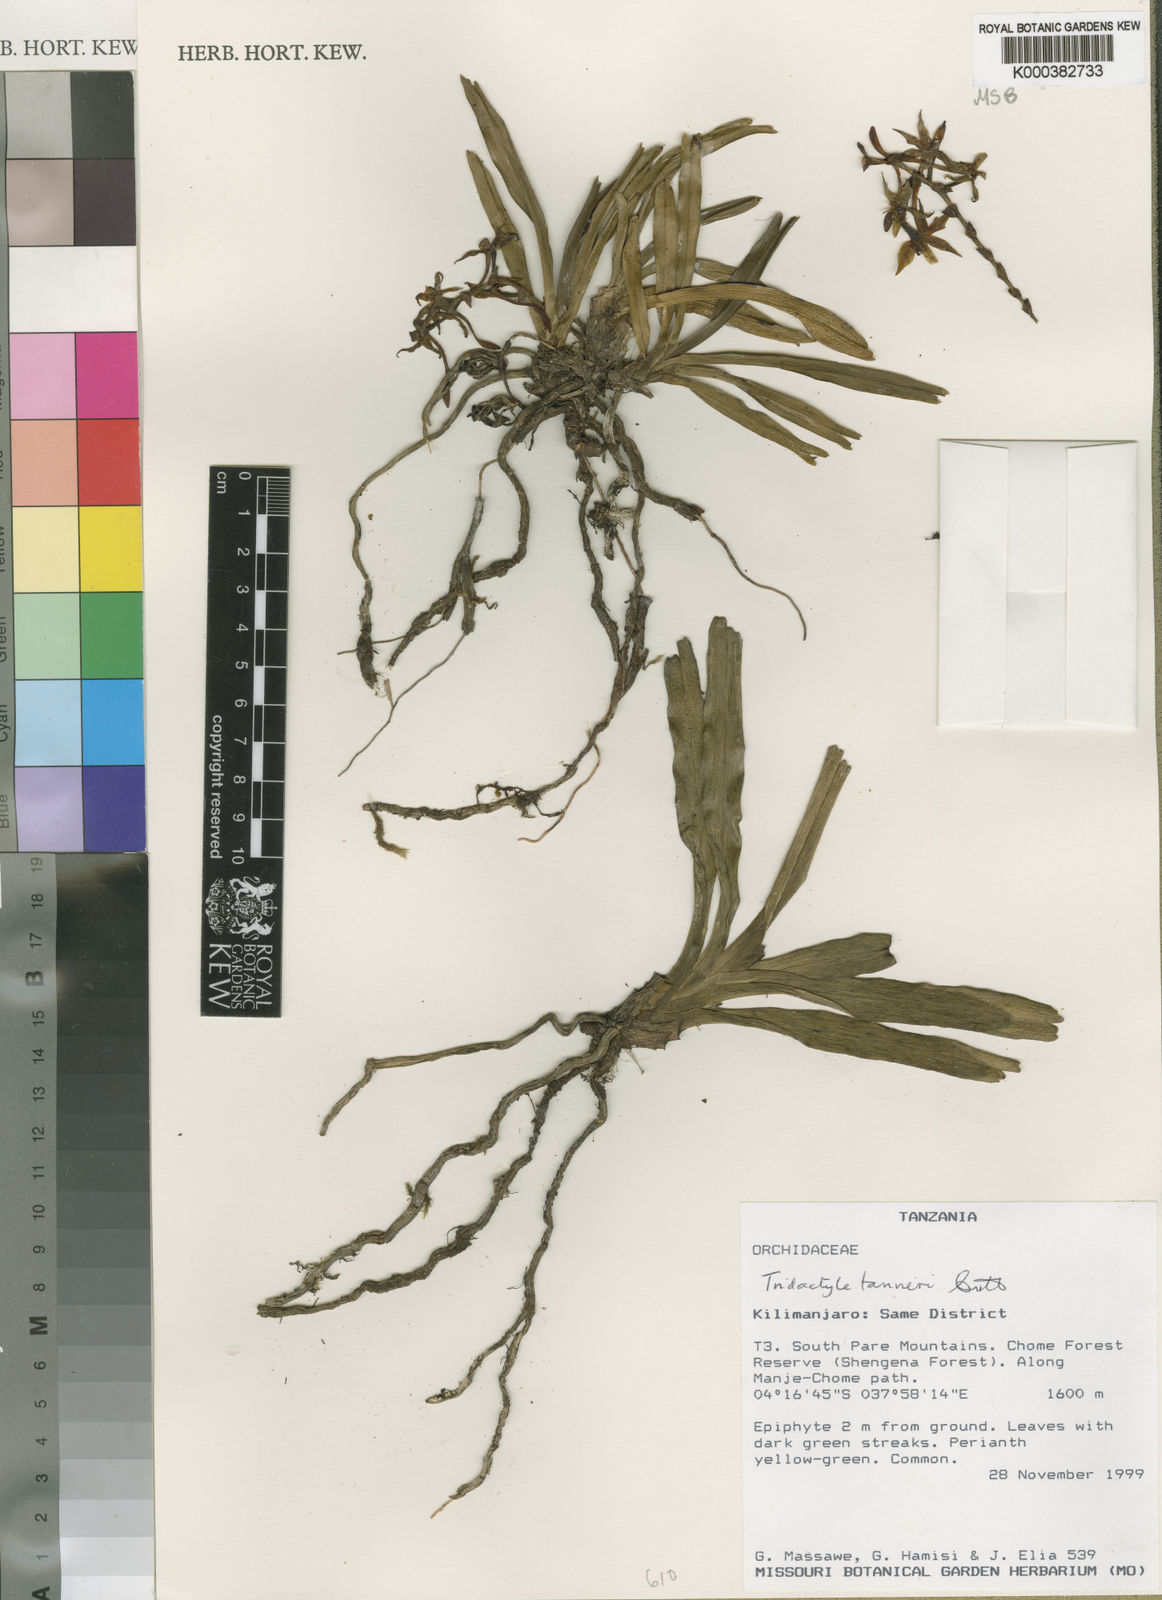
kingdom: Plantae
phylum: Tracheophyta
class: Liliopsida
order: Asparagales
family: Orchidaceae
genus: Ypsilopus
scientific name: Ypsilopus tanneri
